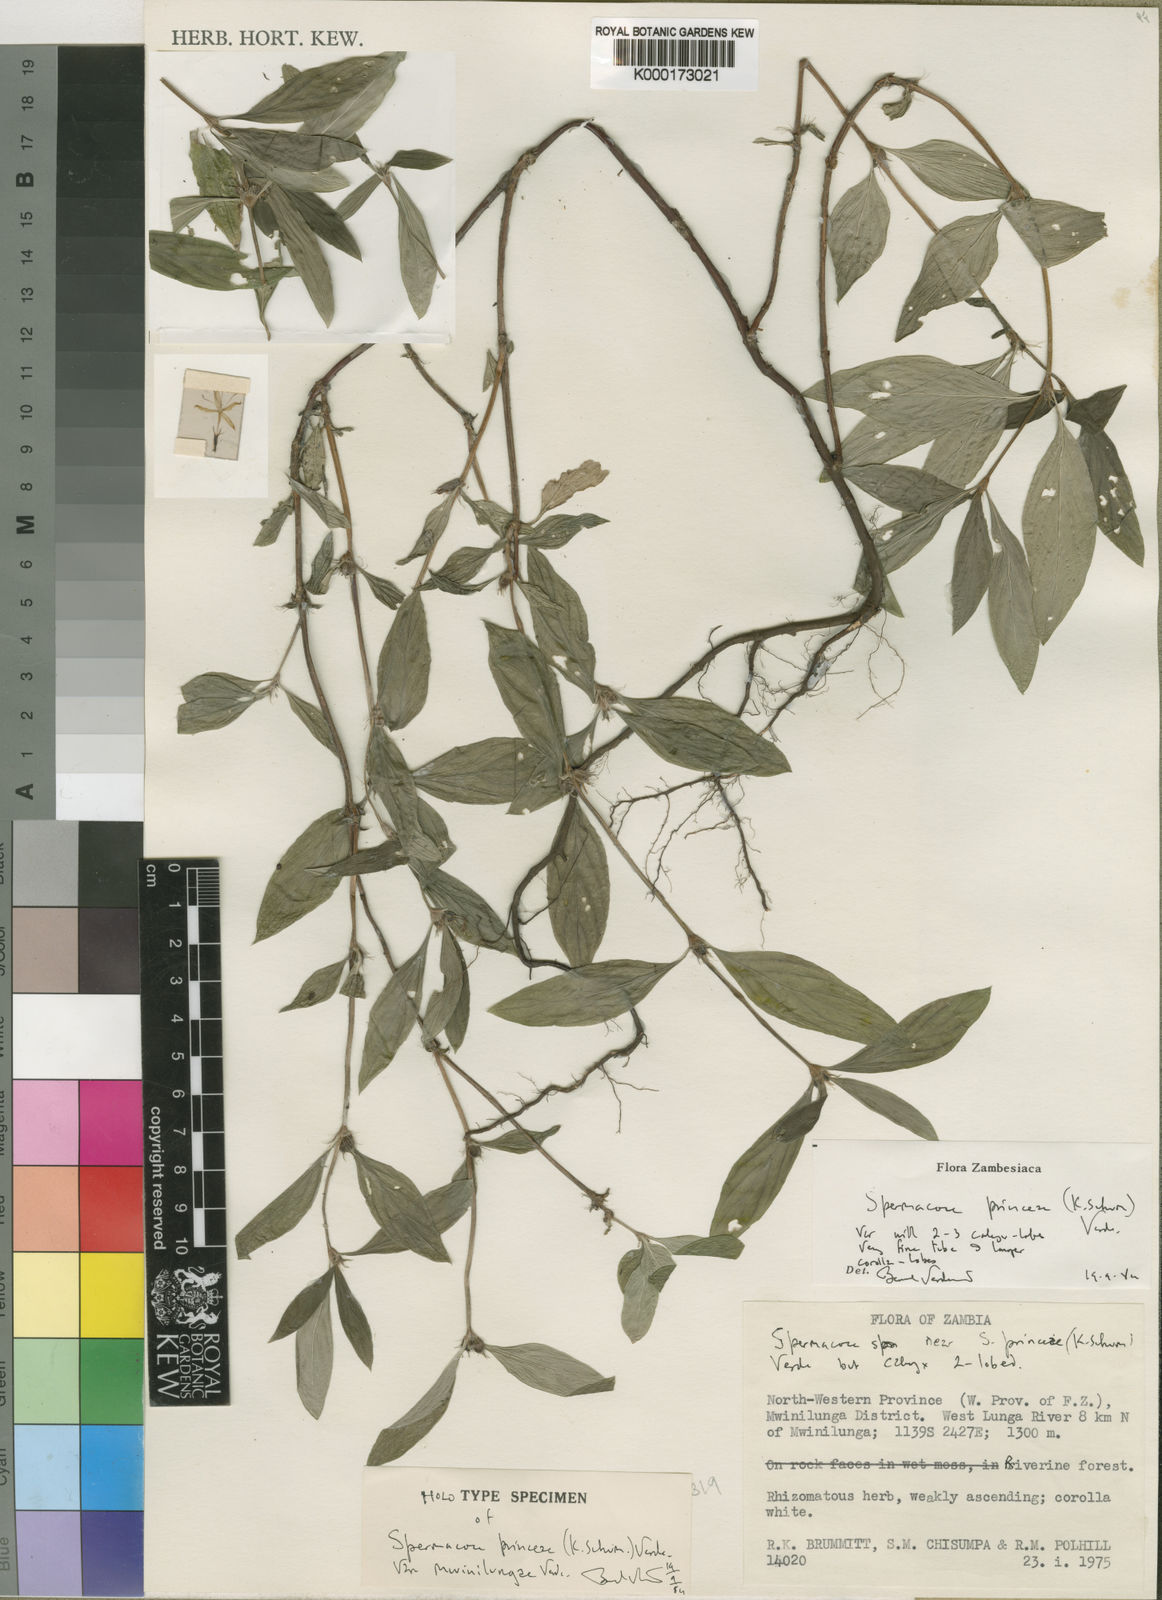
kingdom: Plantae
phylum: Tracheophyta
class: Magnoliopsida
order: Gentianales
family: Rubiaceae
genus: Spermacoce
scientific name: Spermacoce princeae
